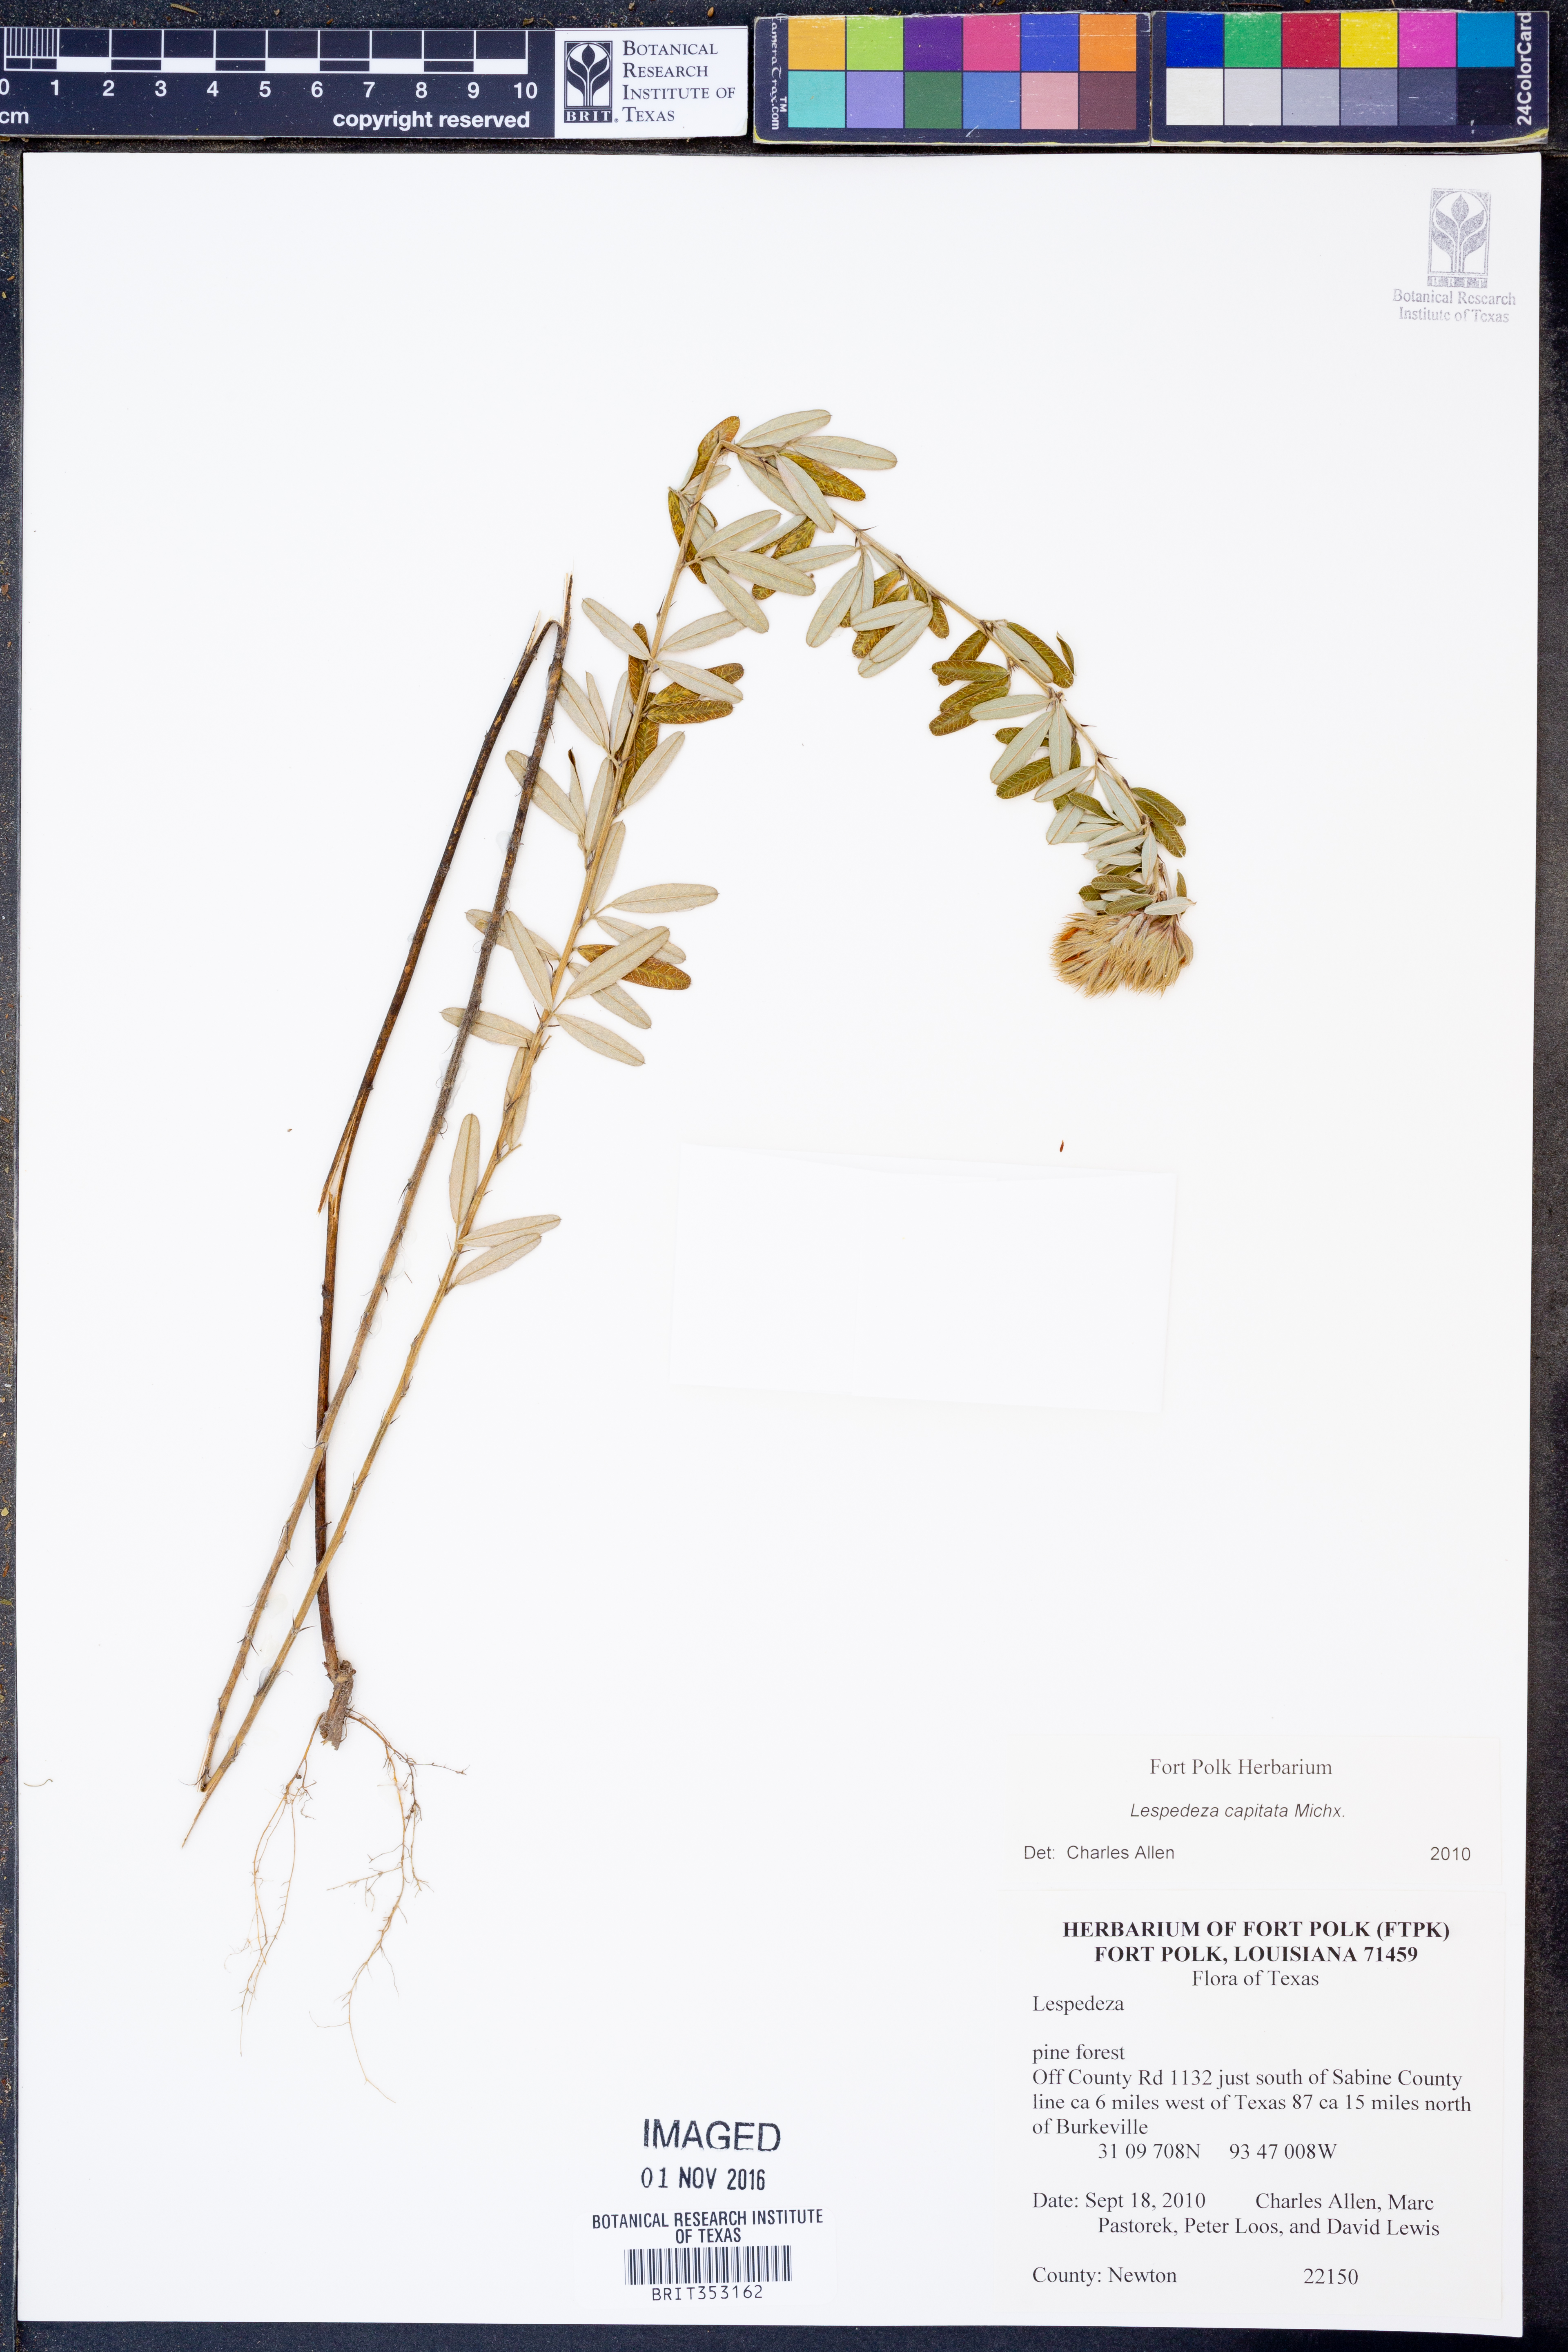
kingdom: Plantae
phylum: Tracheophyta
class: Magnoliopsida
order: Fabales
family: Fabaceae
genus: Lespedeza
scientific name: Lespedeza capitata
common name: Dusty clover
